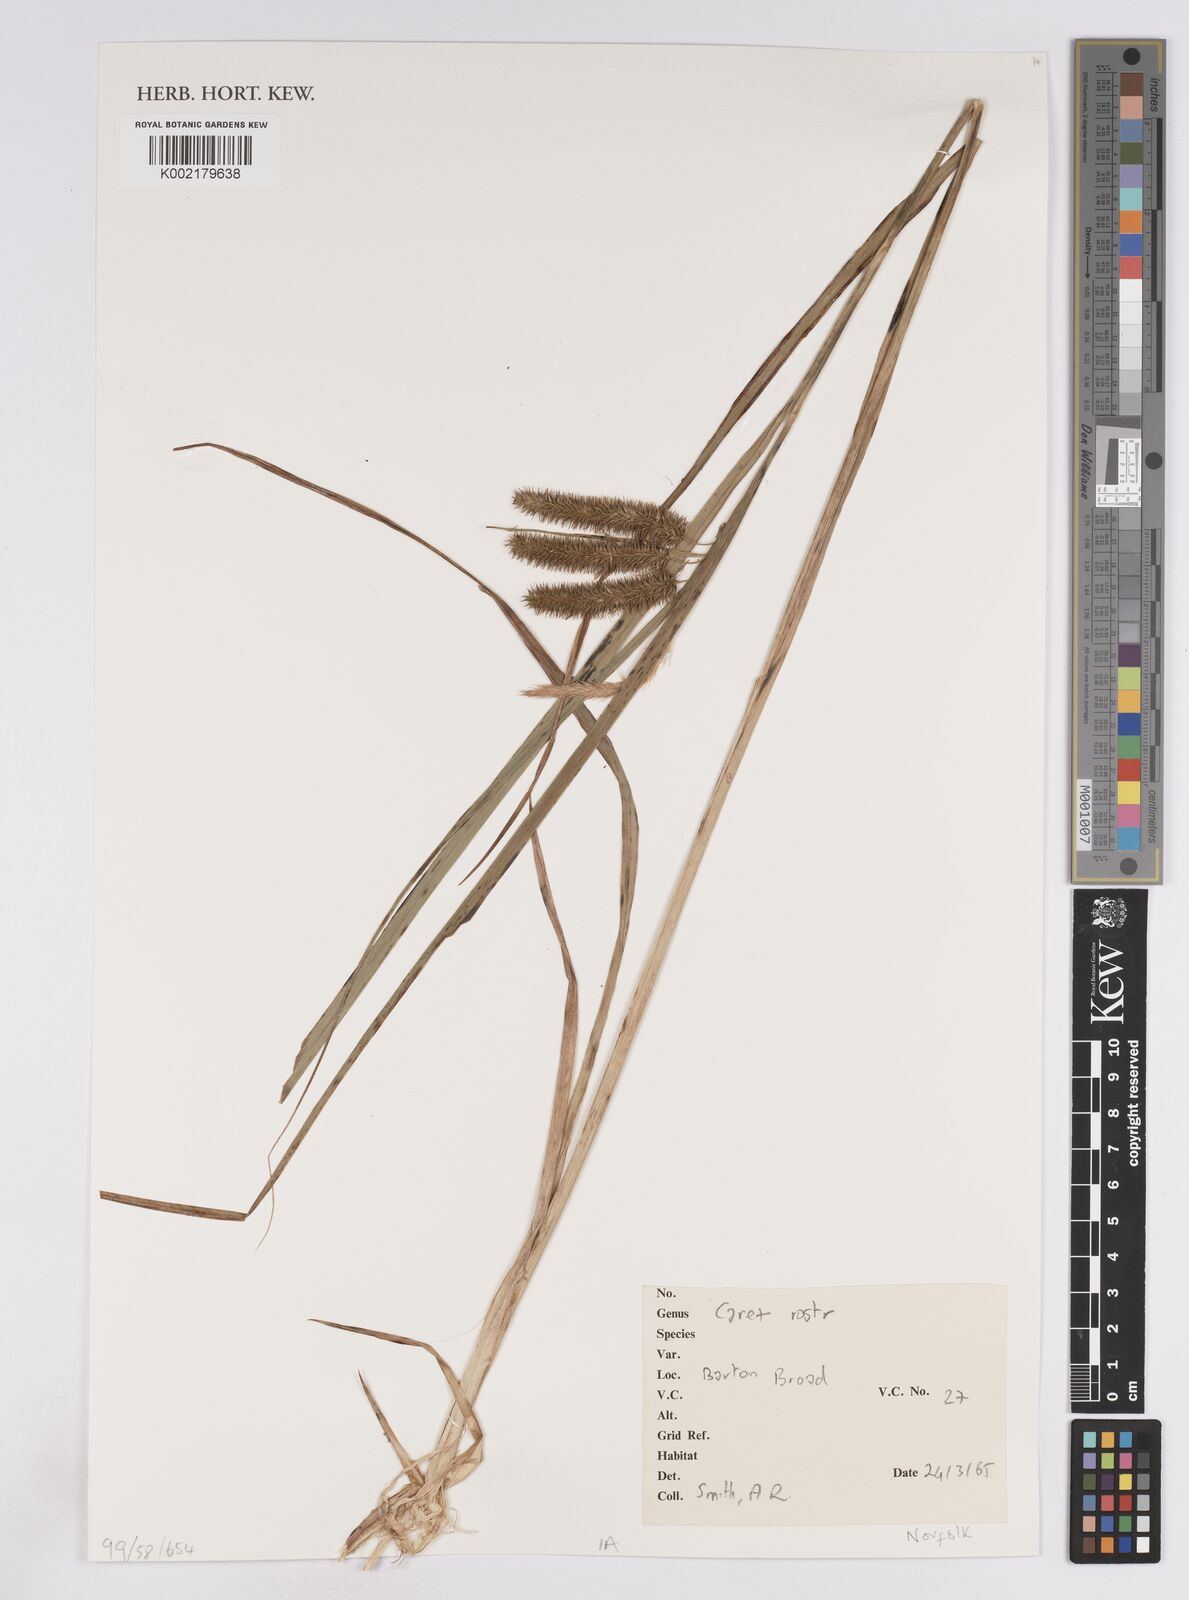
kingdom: Plantae
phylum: Tracheophyta
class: Liliopsida
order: Poales
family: Cyperaceae
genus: Carex
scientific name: Carex rostrata
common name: Bottle sedge
